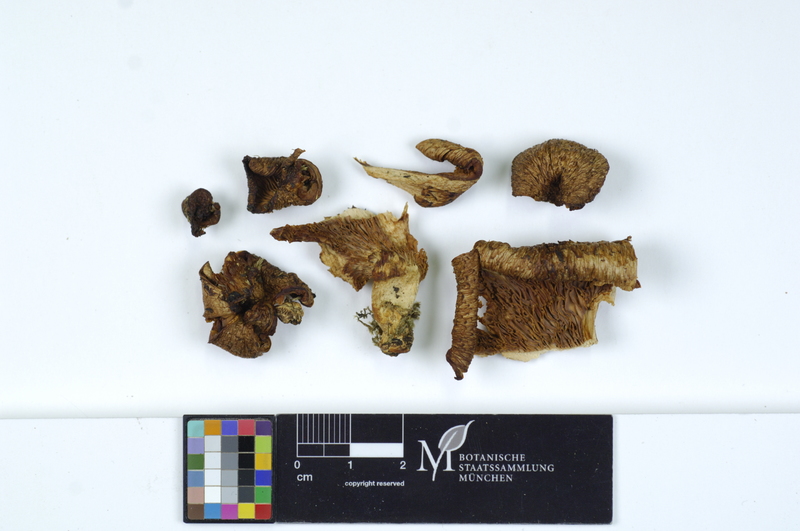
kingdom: Plantae
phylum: Tracheophyta
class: Magnoliopsida
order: Malpighiales
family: Salicaceae
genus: Salix
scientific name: Salix
